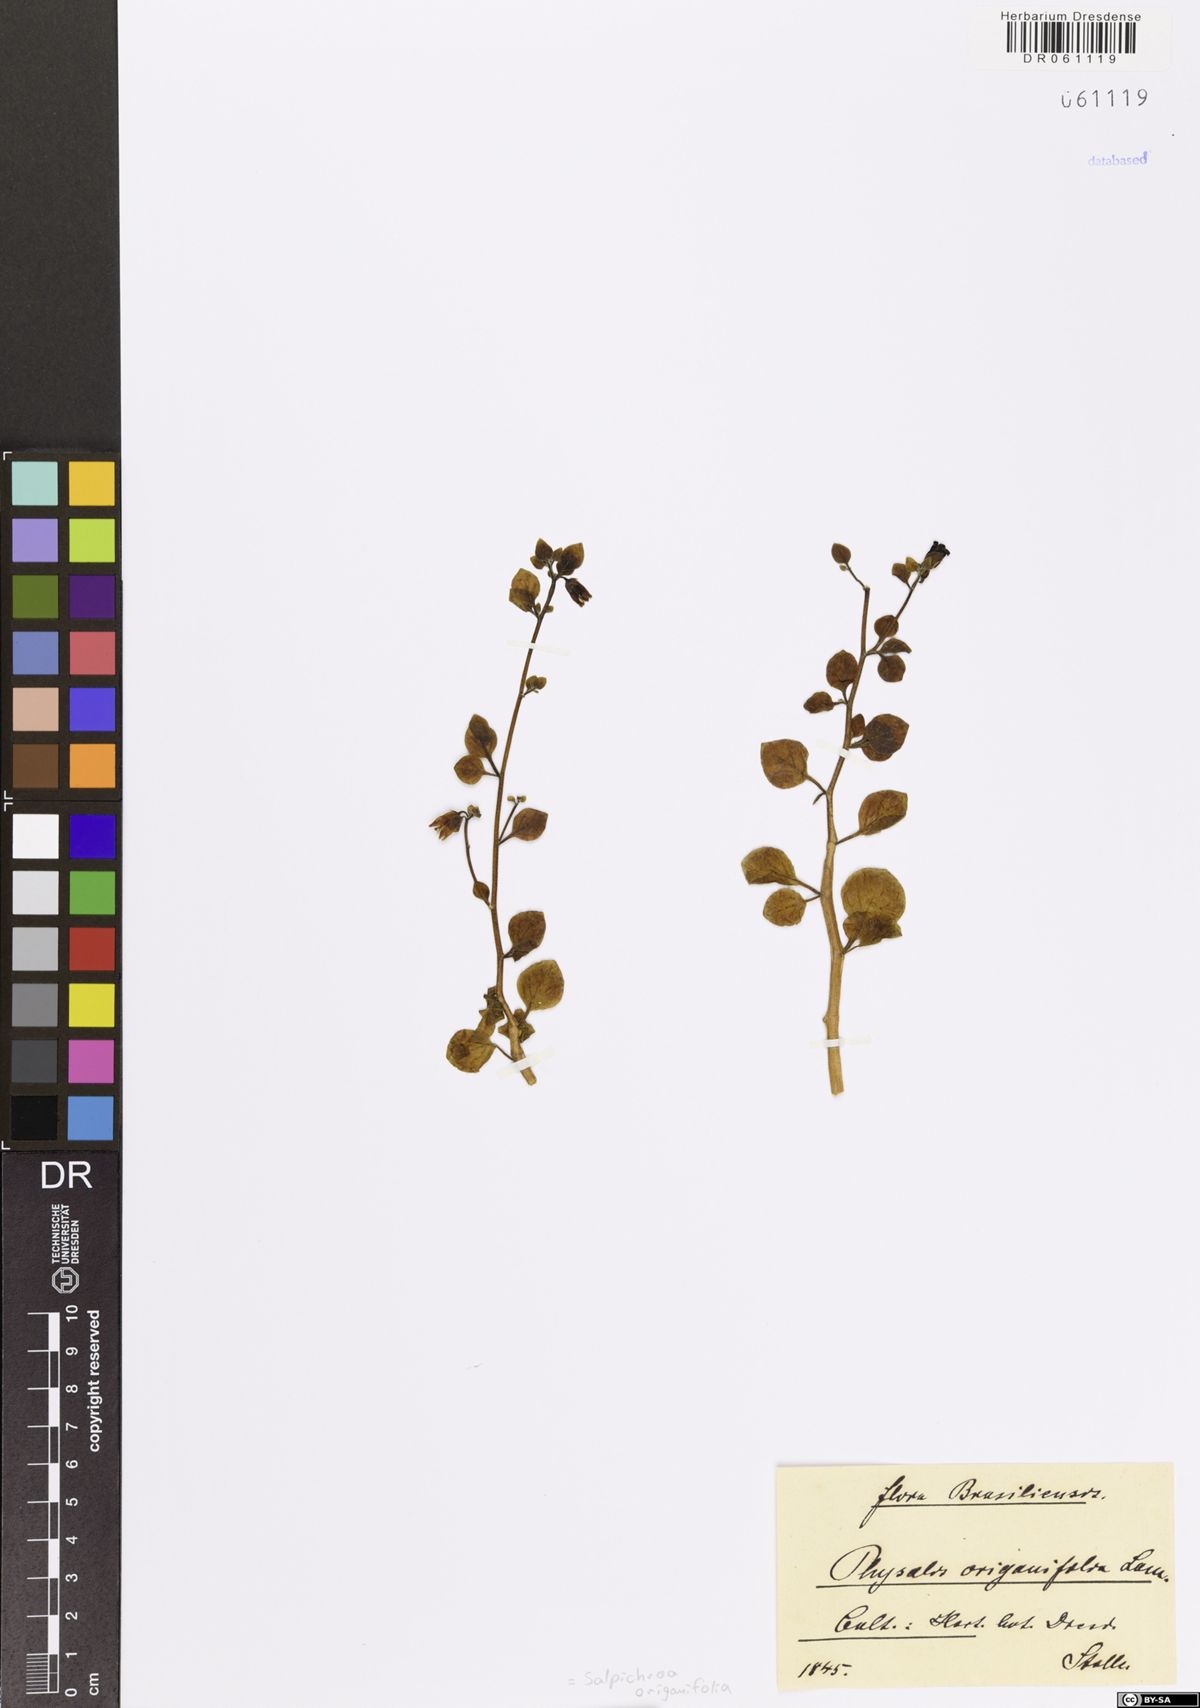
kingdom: Plantae
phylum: Tracheophyta
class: Magnoliopsida
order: Solanales
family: Solanaceae
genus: Salpichroa
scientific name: Salpichroa origanifolia
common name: Lily-of-the-valley-vine
